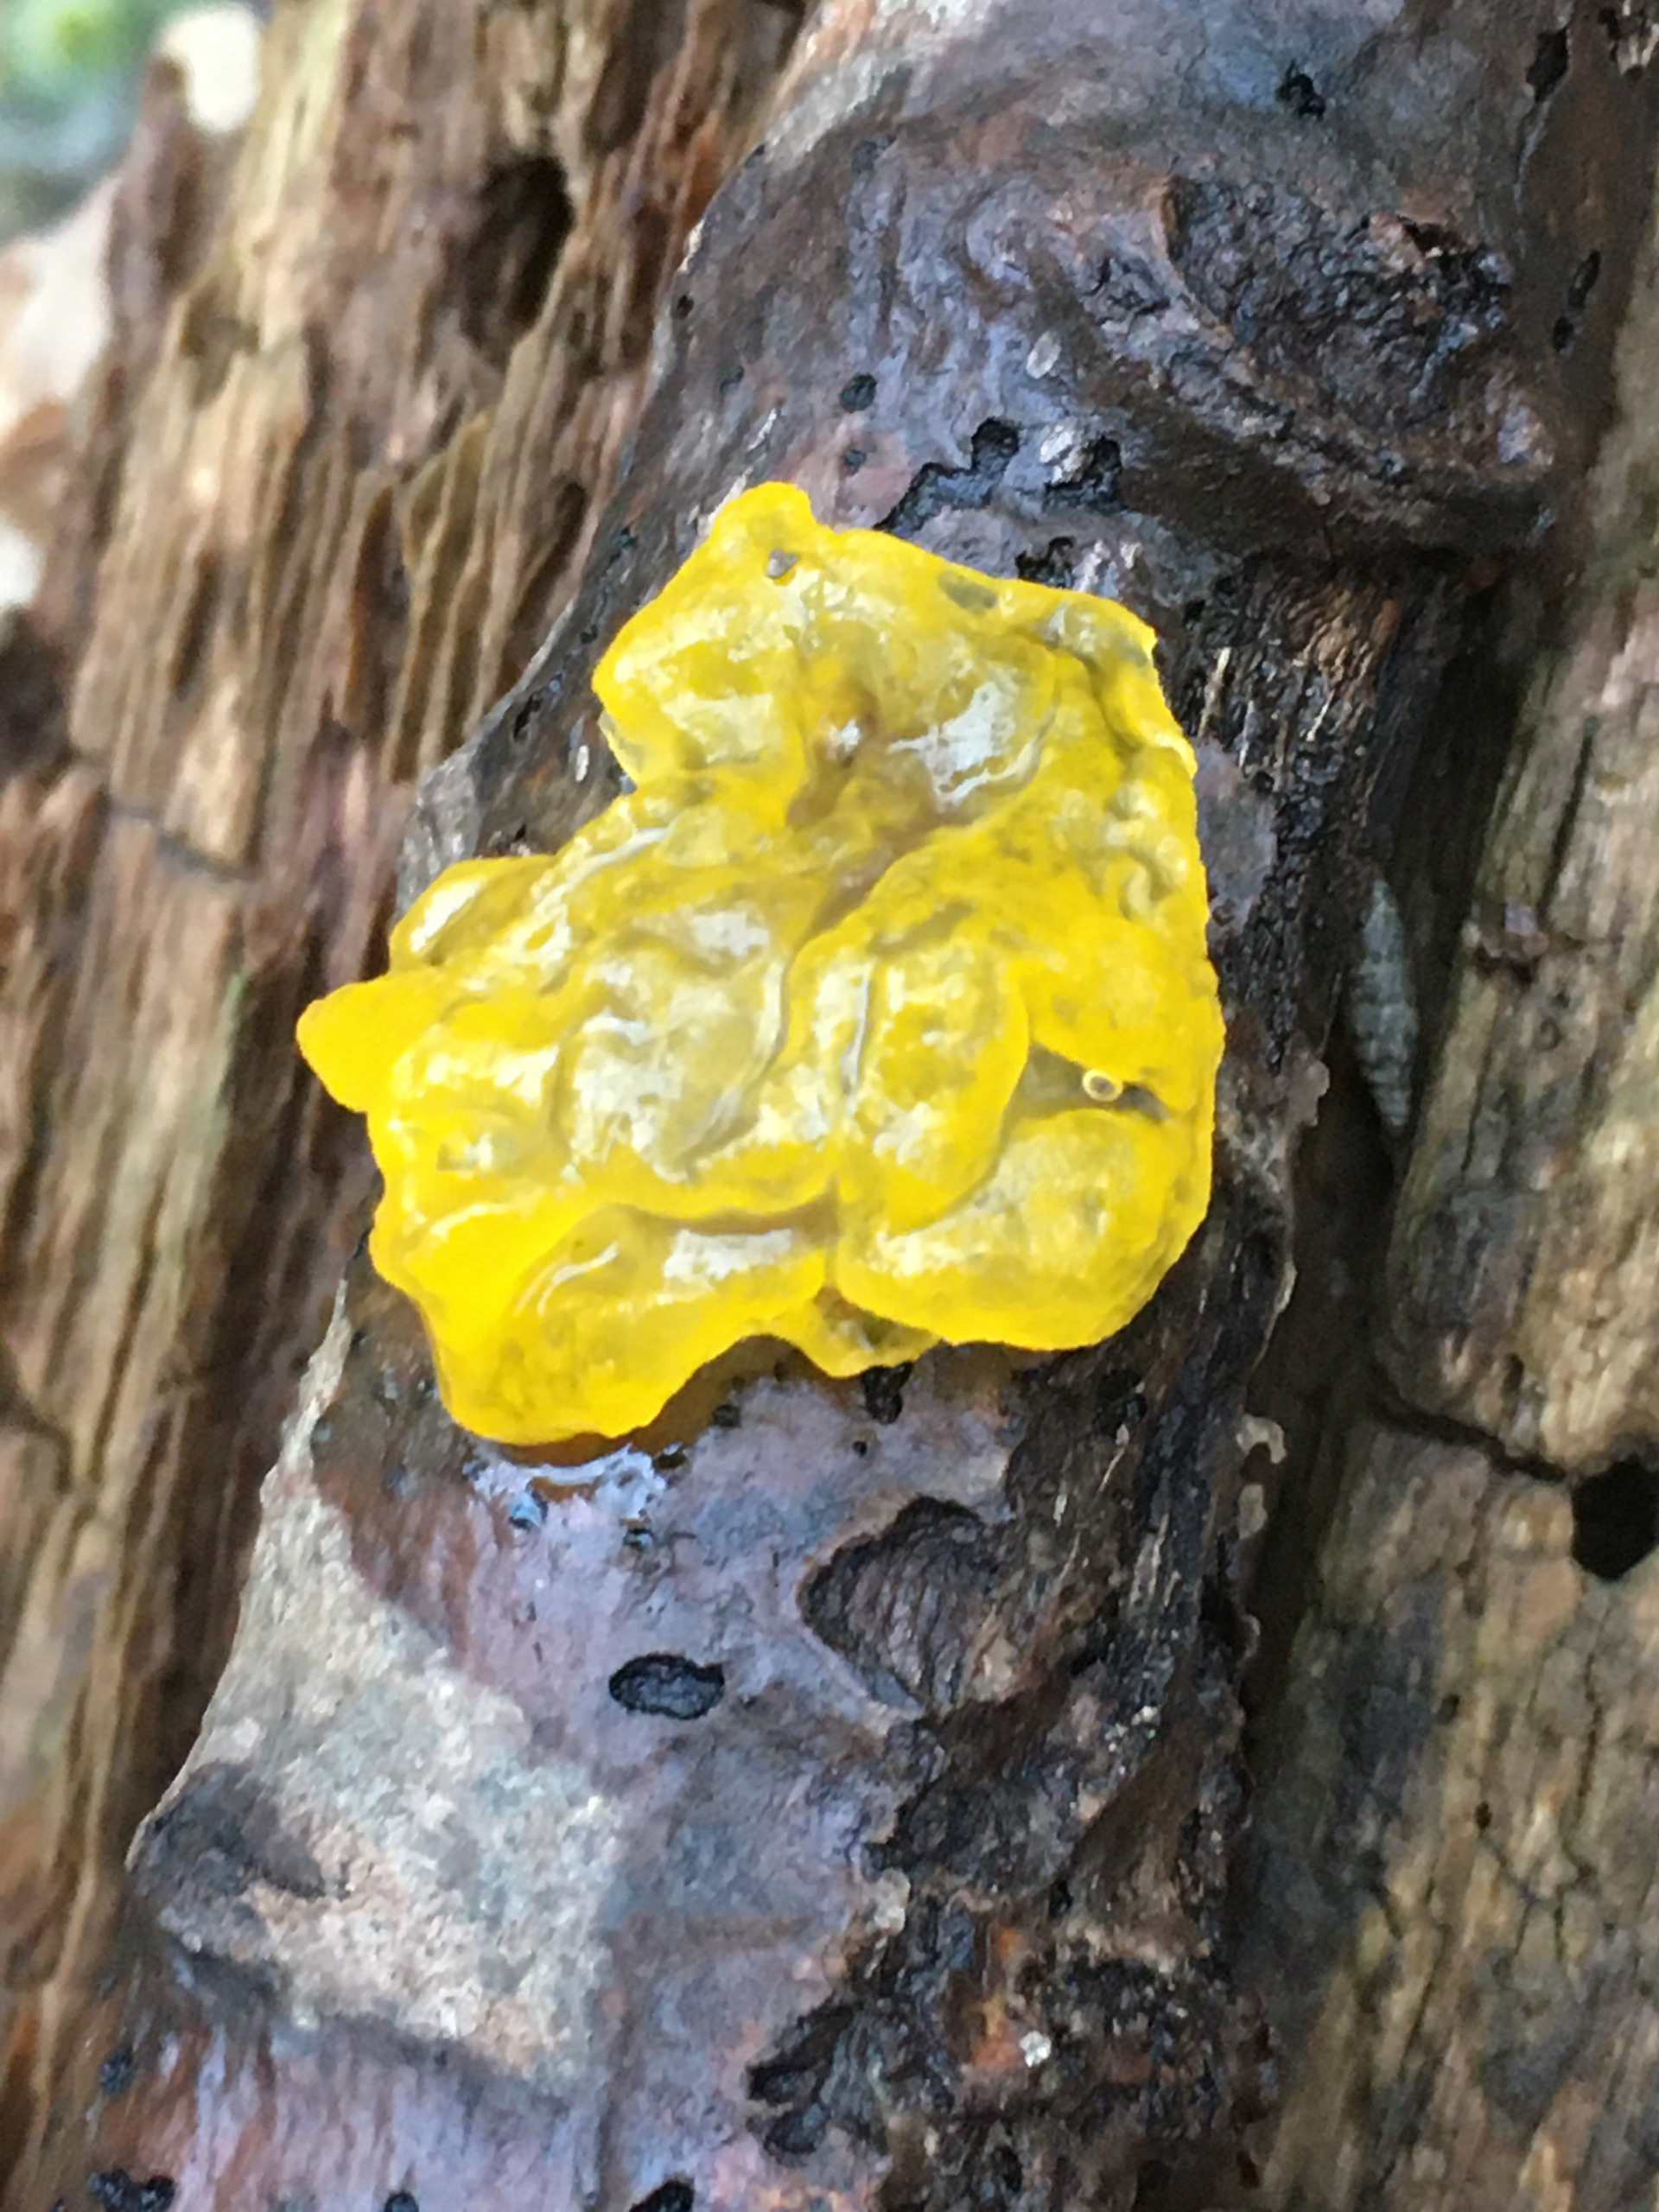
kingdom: Fungi
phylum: Basidiomycota
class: Tremellomycetes
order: Tremellales
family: Tremellaceae
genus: Tremella
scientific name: Tremella mesenterica
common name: Gul bævresvamp
